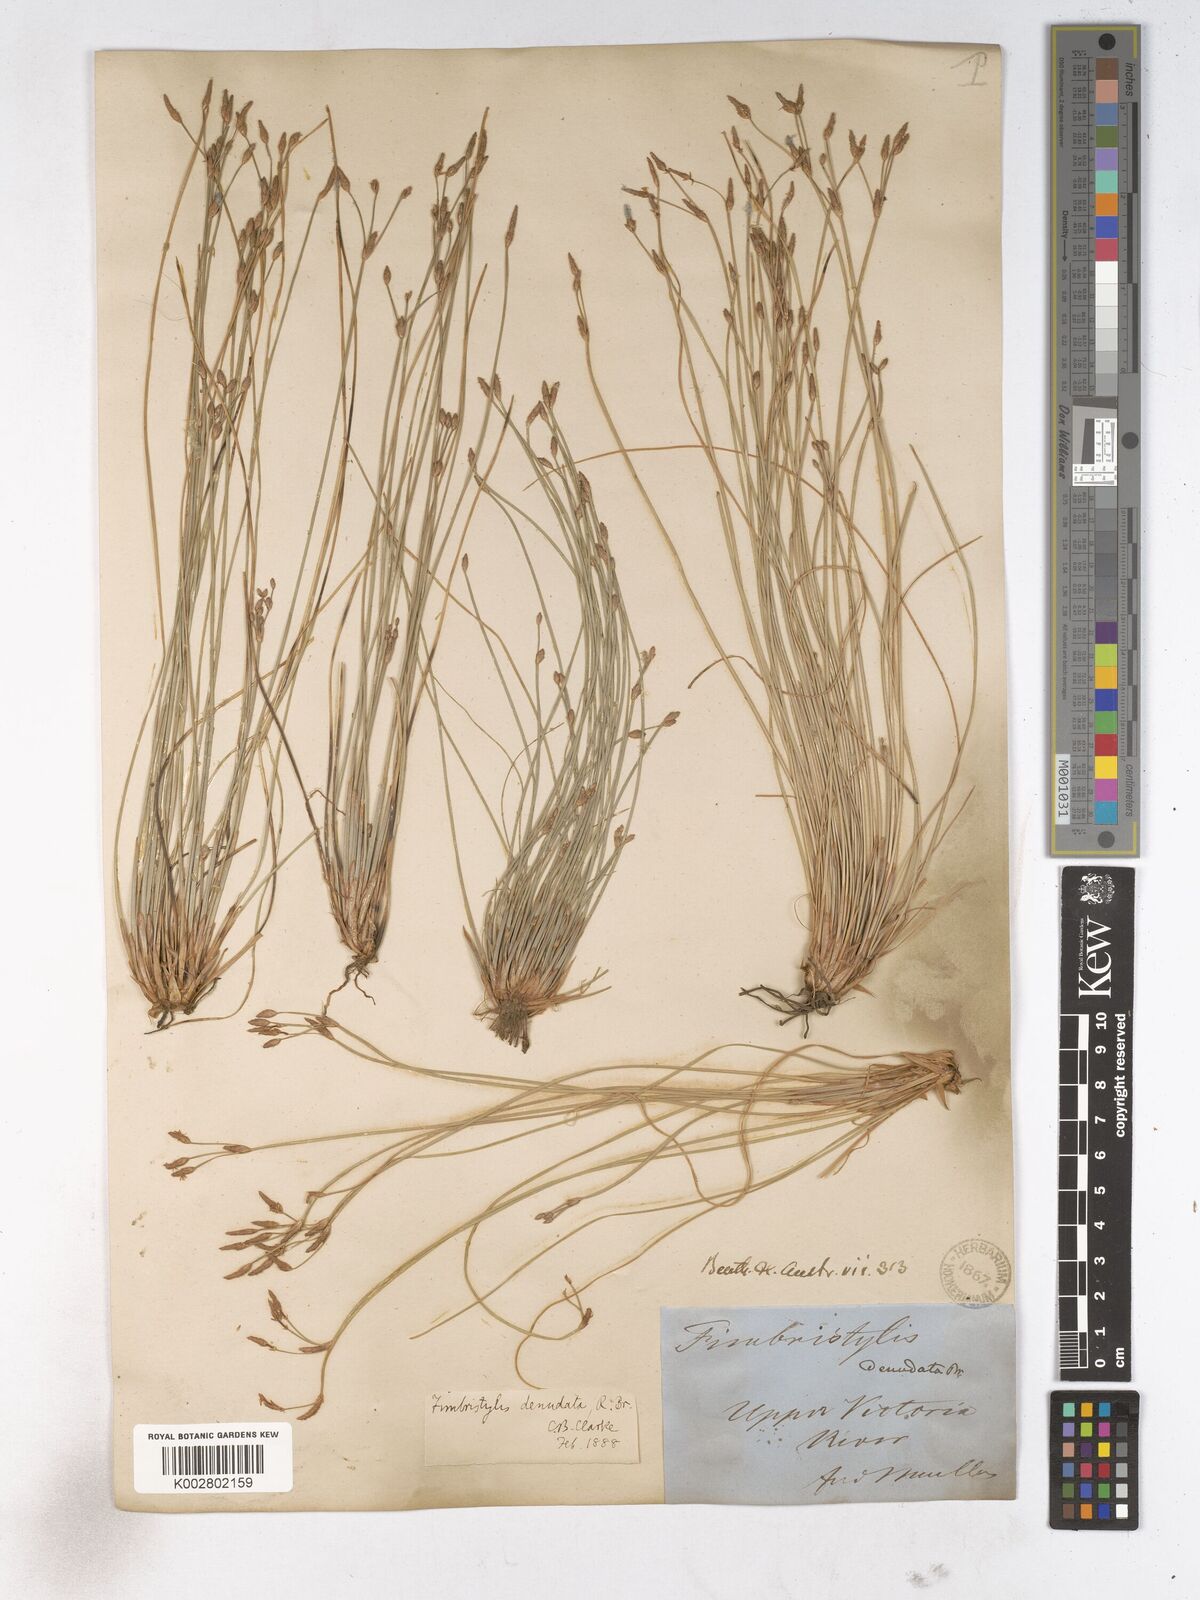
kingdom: Plantae
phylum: Tracheophyta
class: Liliopsida
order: Poales
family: Cyperaceae
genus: Fimbristylis
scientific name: Fimbristylis denudata
